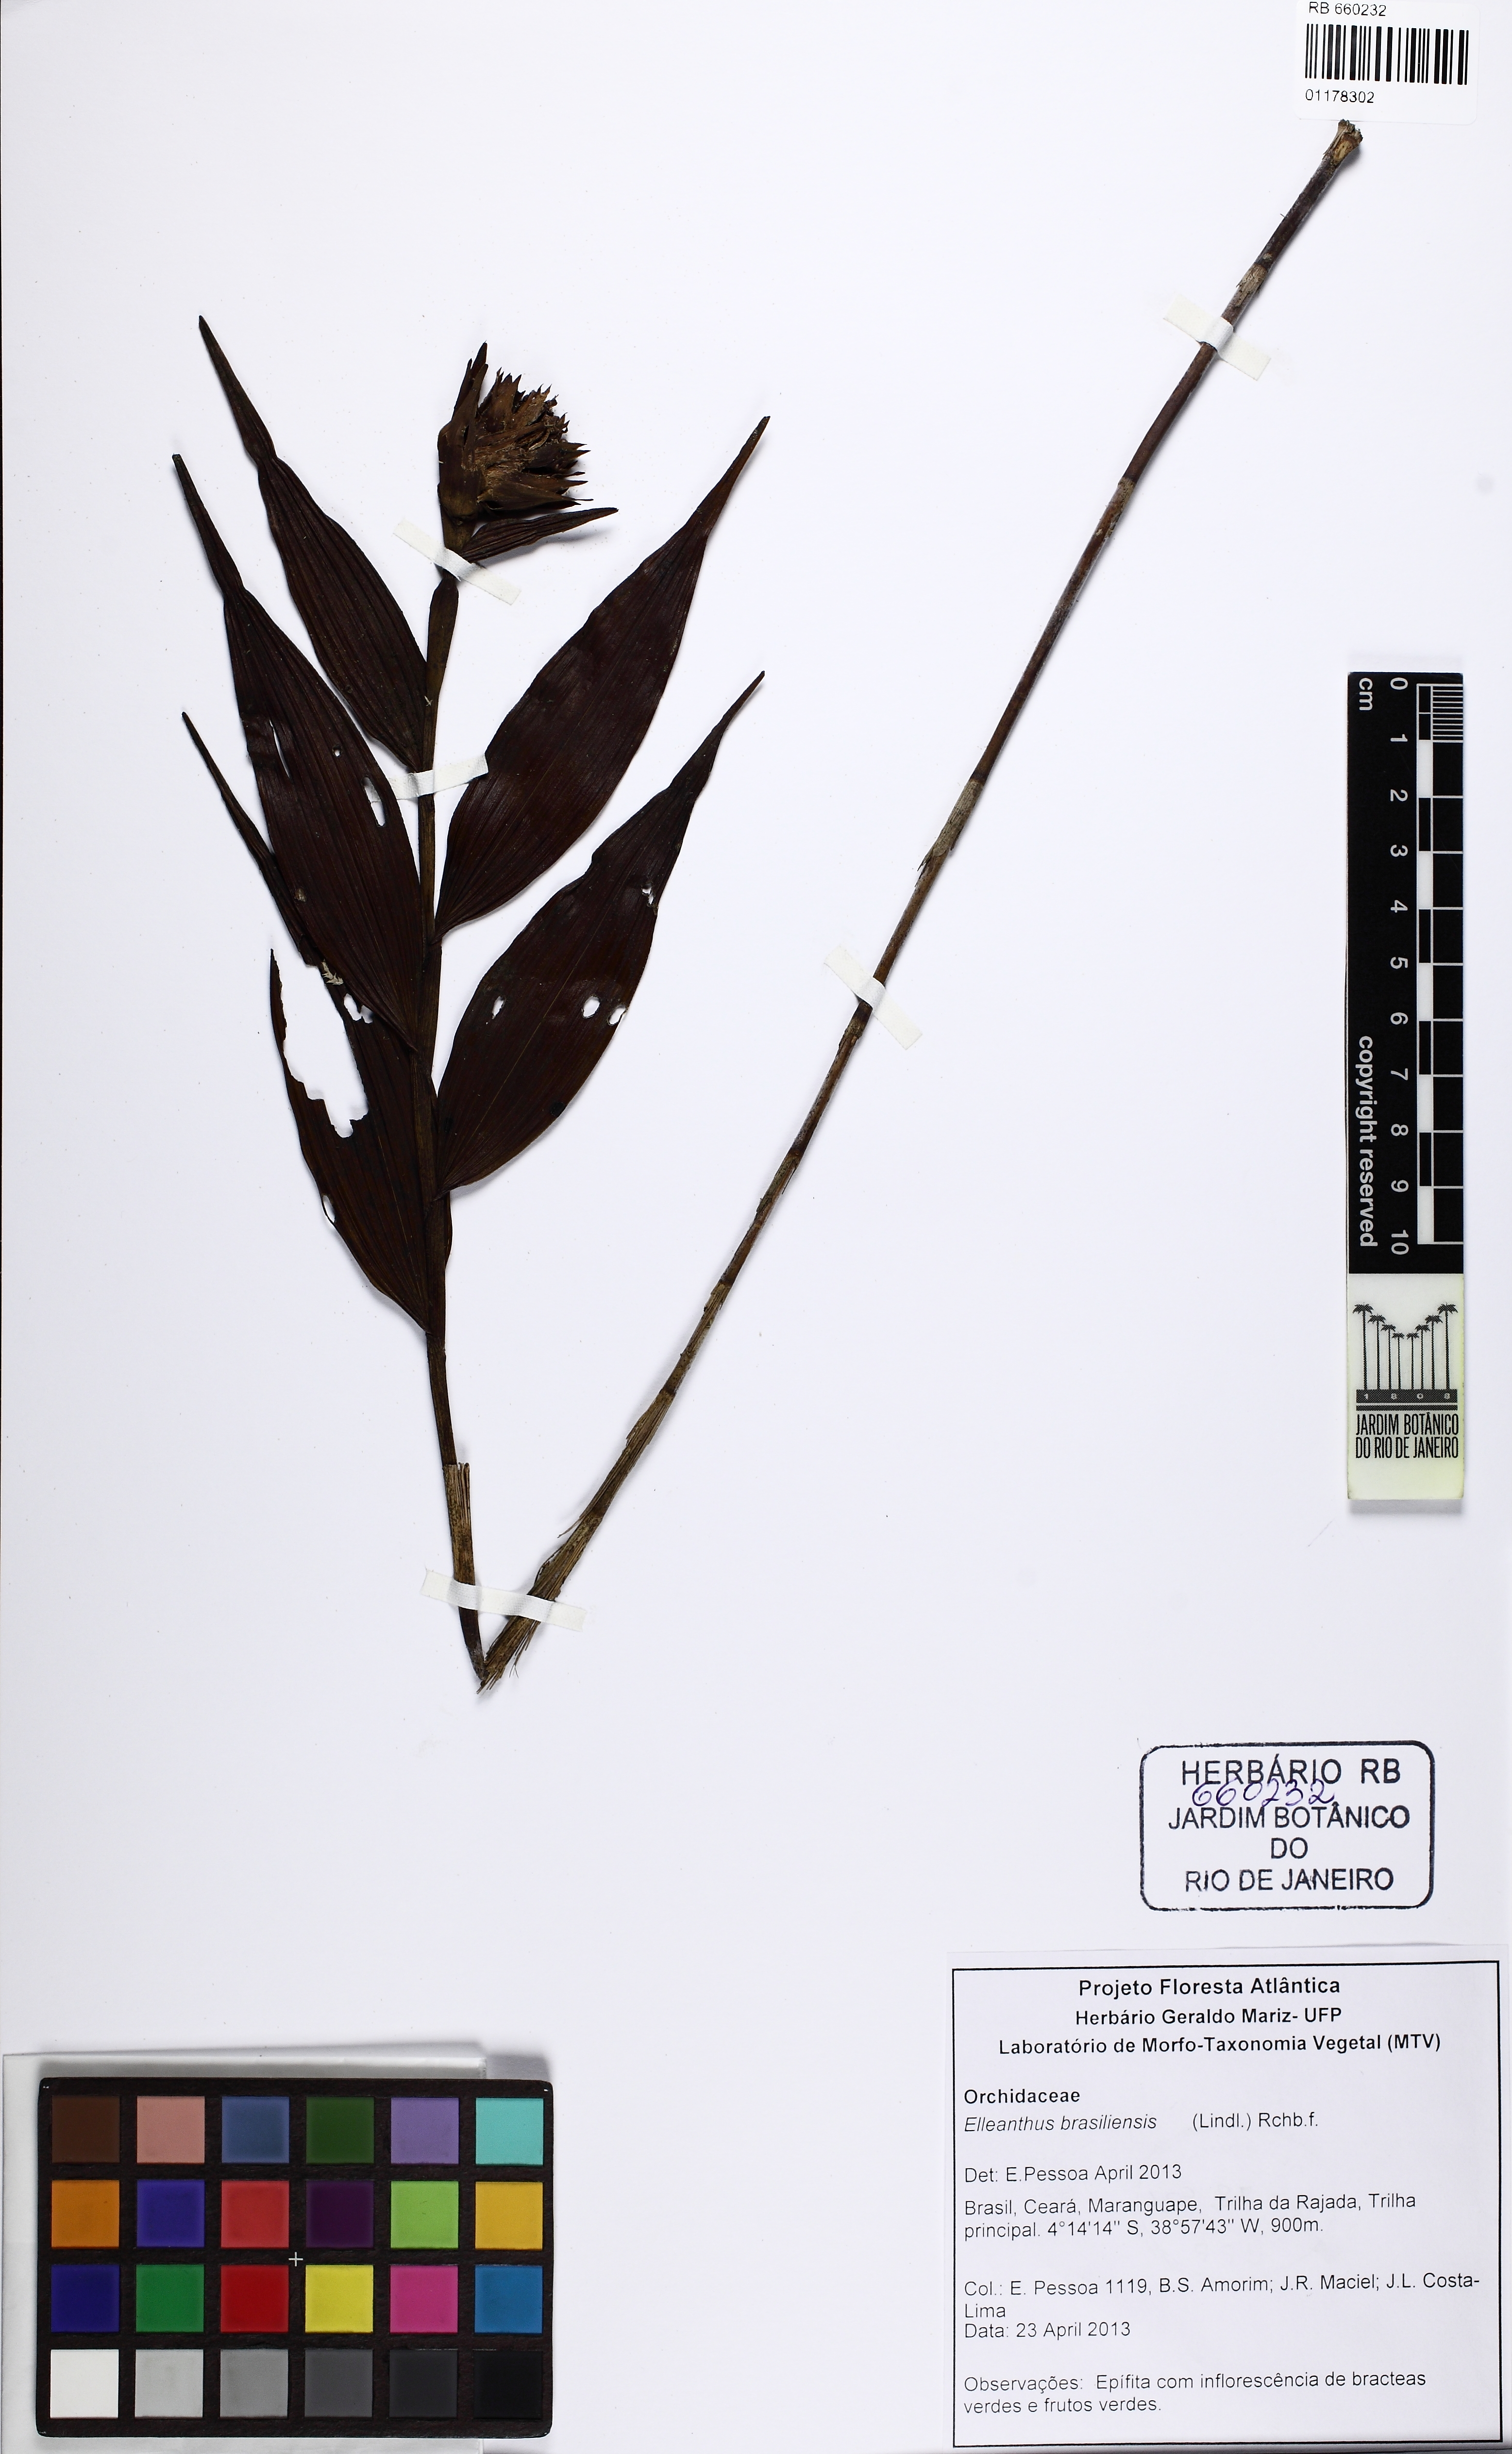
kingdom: Plantae
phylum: Tracheophyta
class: Liliopsida
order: Asparagales
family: Orchidaceae
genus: Elleanthus
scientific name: Elleanthus brasiliensis
